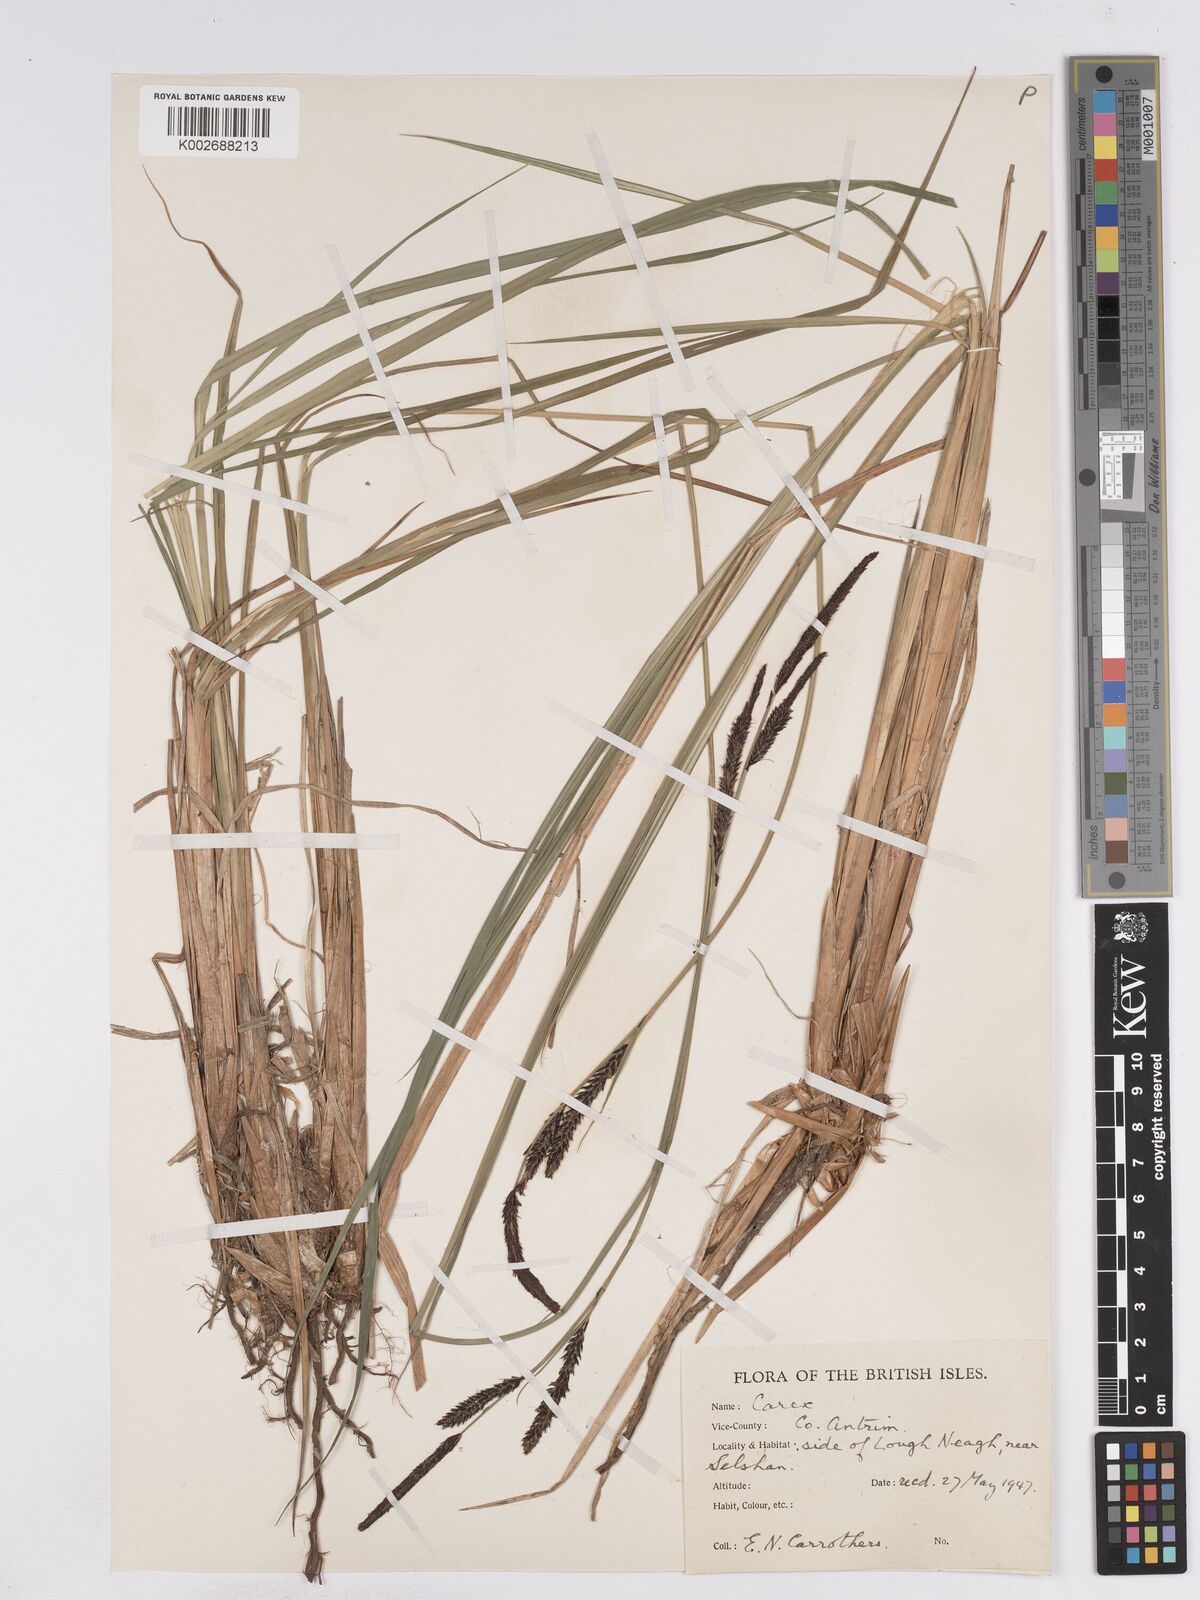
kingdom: Plantae
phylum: Tracheophyta
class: Liliopsida
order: Poales
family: Cyperaceae
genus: Carex
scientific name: Carex elata
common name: Tufted sedge
